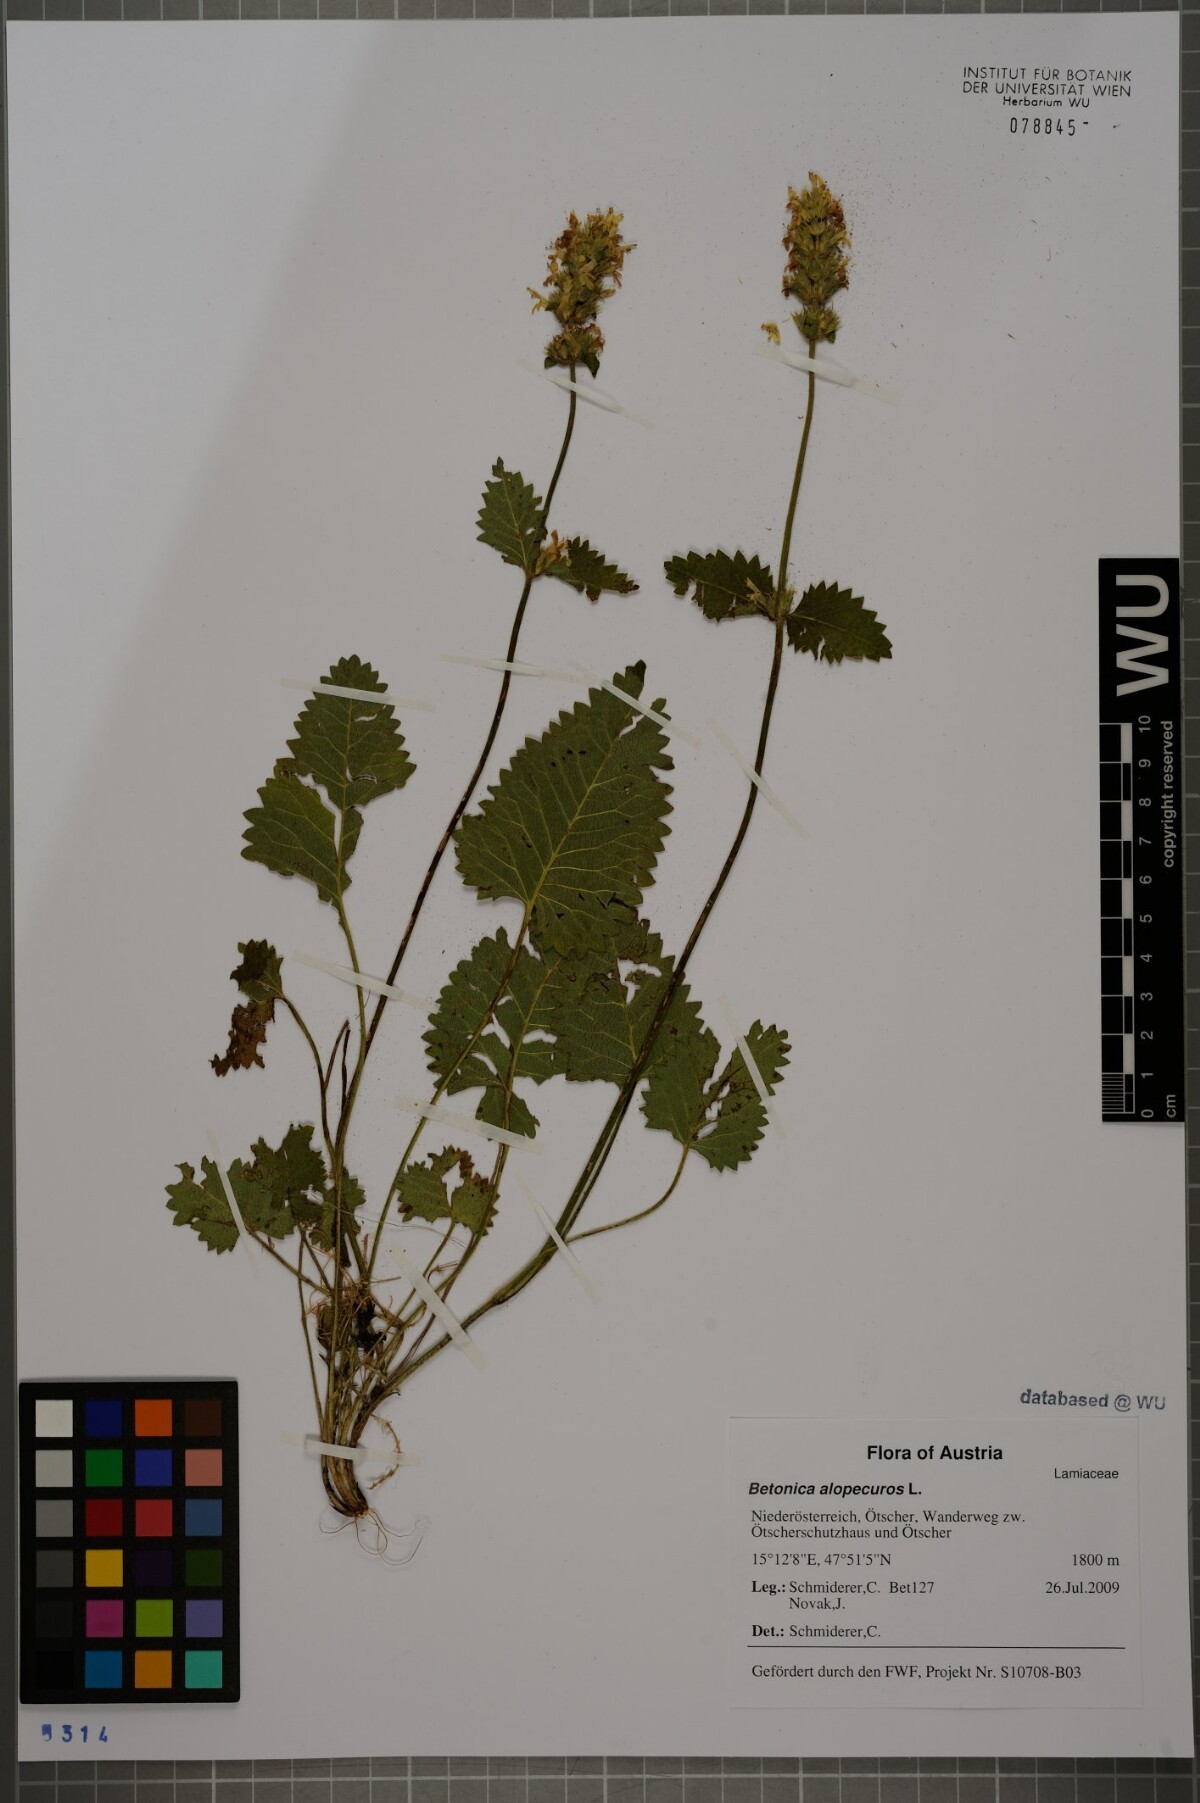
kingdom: Plantae
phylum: Tracheophyta
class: Magnoliopsida
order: Lamiales
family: Lamiaceae
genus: Betonica
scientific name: Betonica alopecuros
